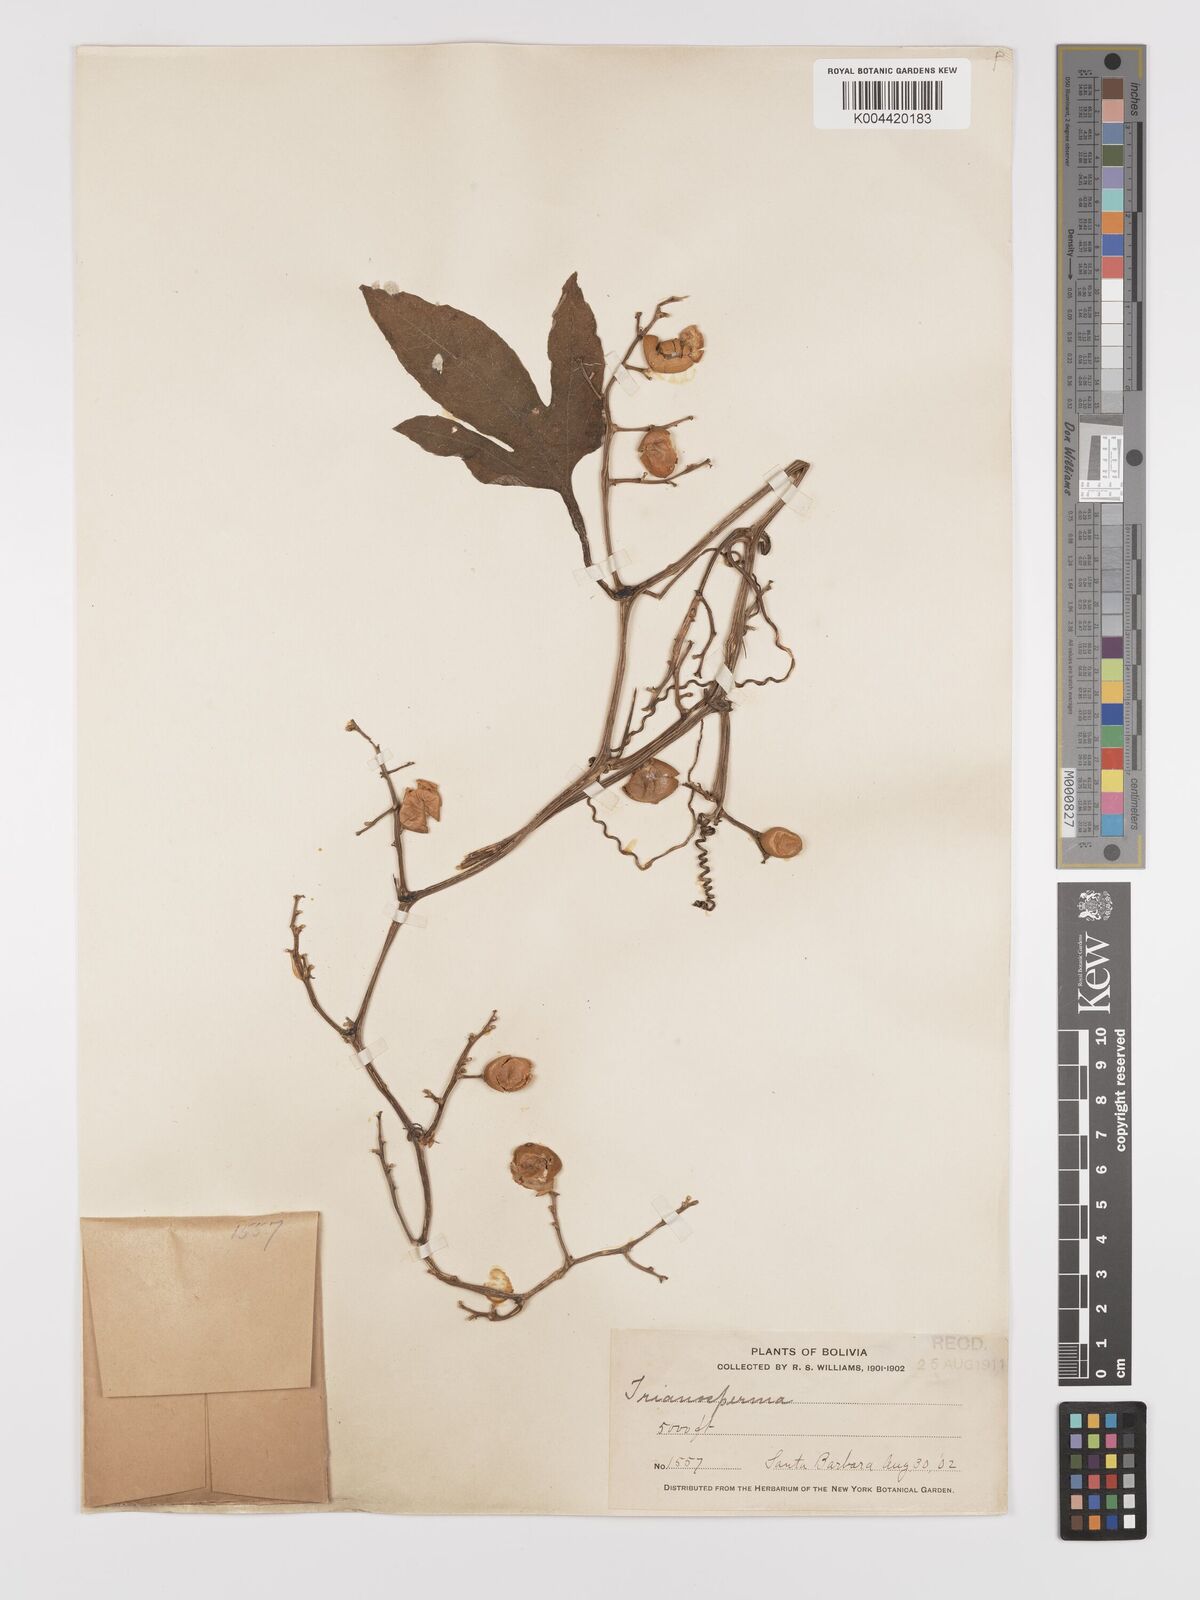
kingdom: Plantae
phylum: Tracheophyta
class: Magnoliopsida
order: Cucurbitales
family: Cucurbitaceae
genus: Cayaponia
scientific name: Cayaponia tayuya
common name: Tayuya
